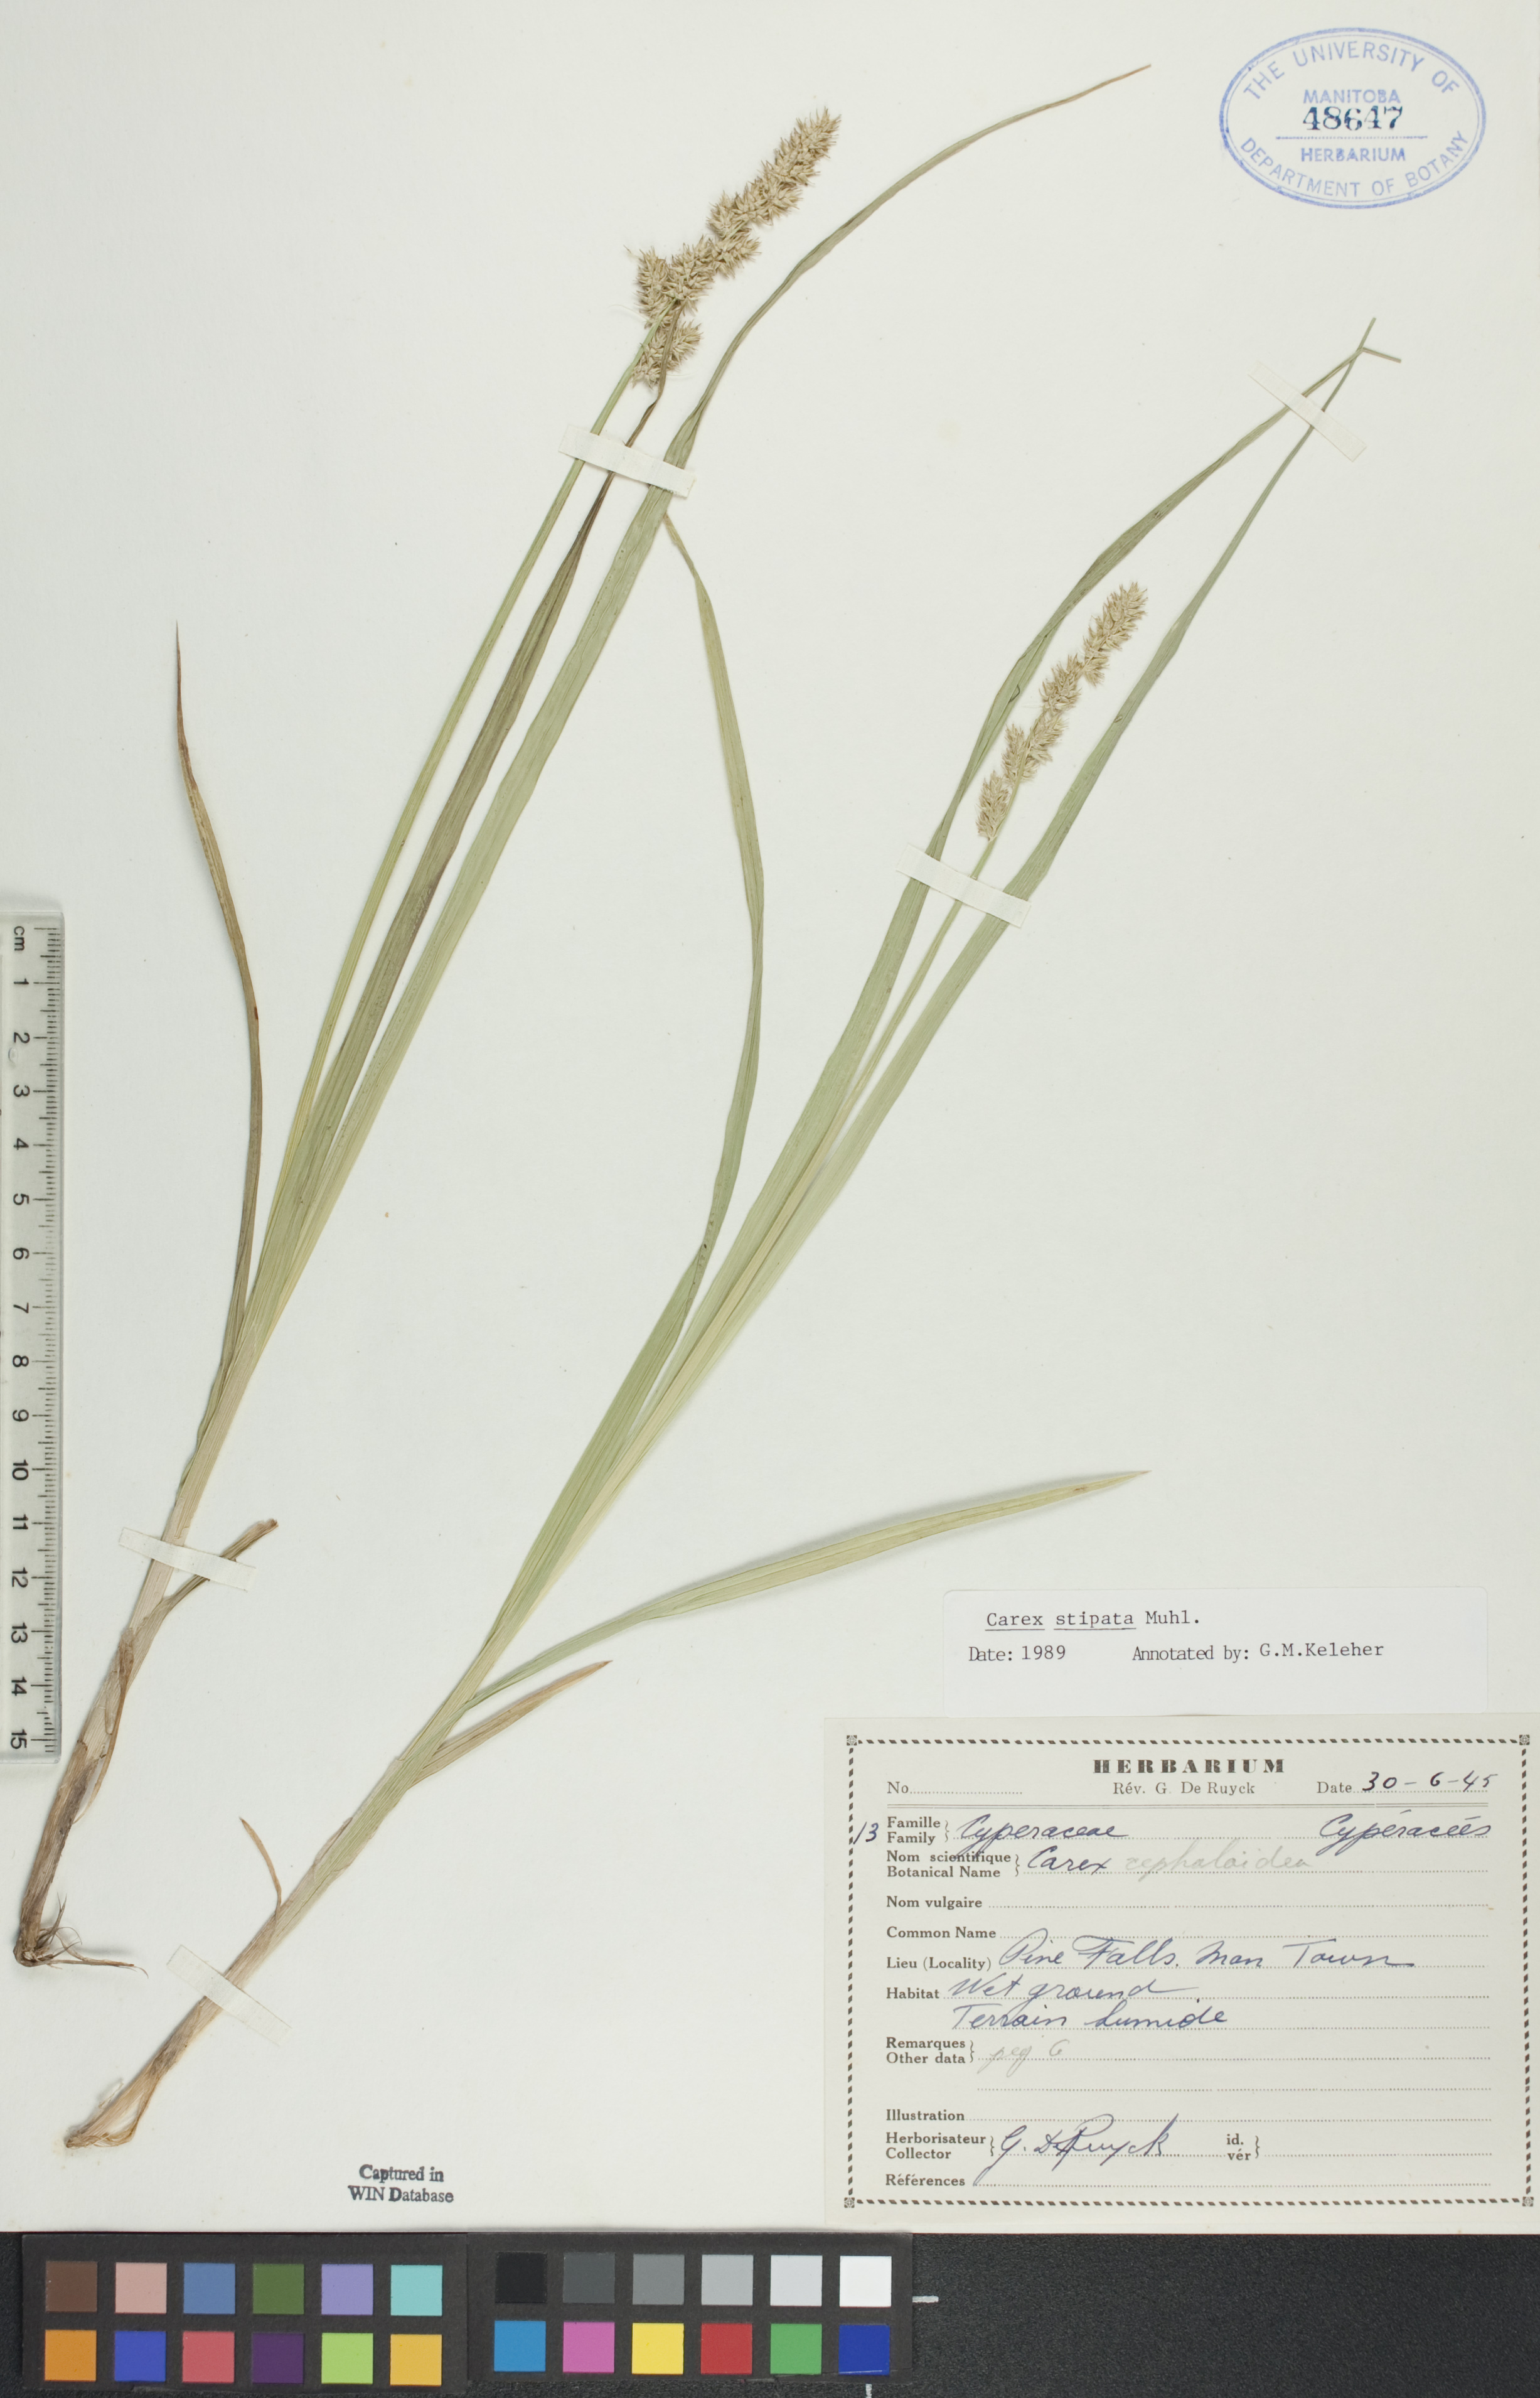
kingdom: Plantae
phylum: Tracheophyta
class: Liliopsida
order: Poales
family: Cyperaceae
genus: Carex
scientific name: Carex stipata
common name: Awl-fruited sedge
